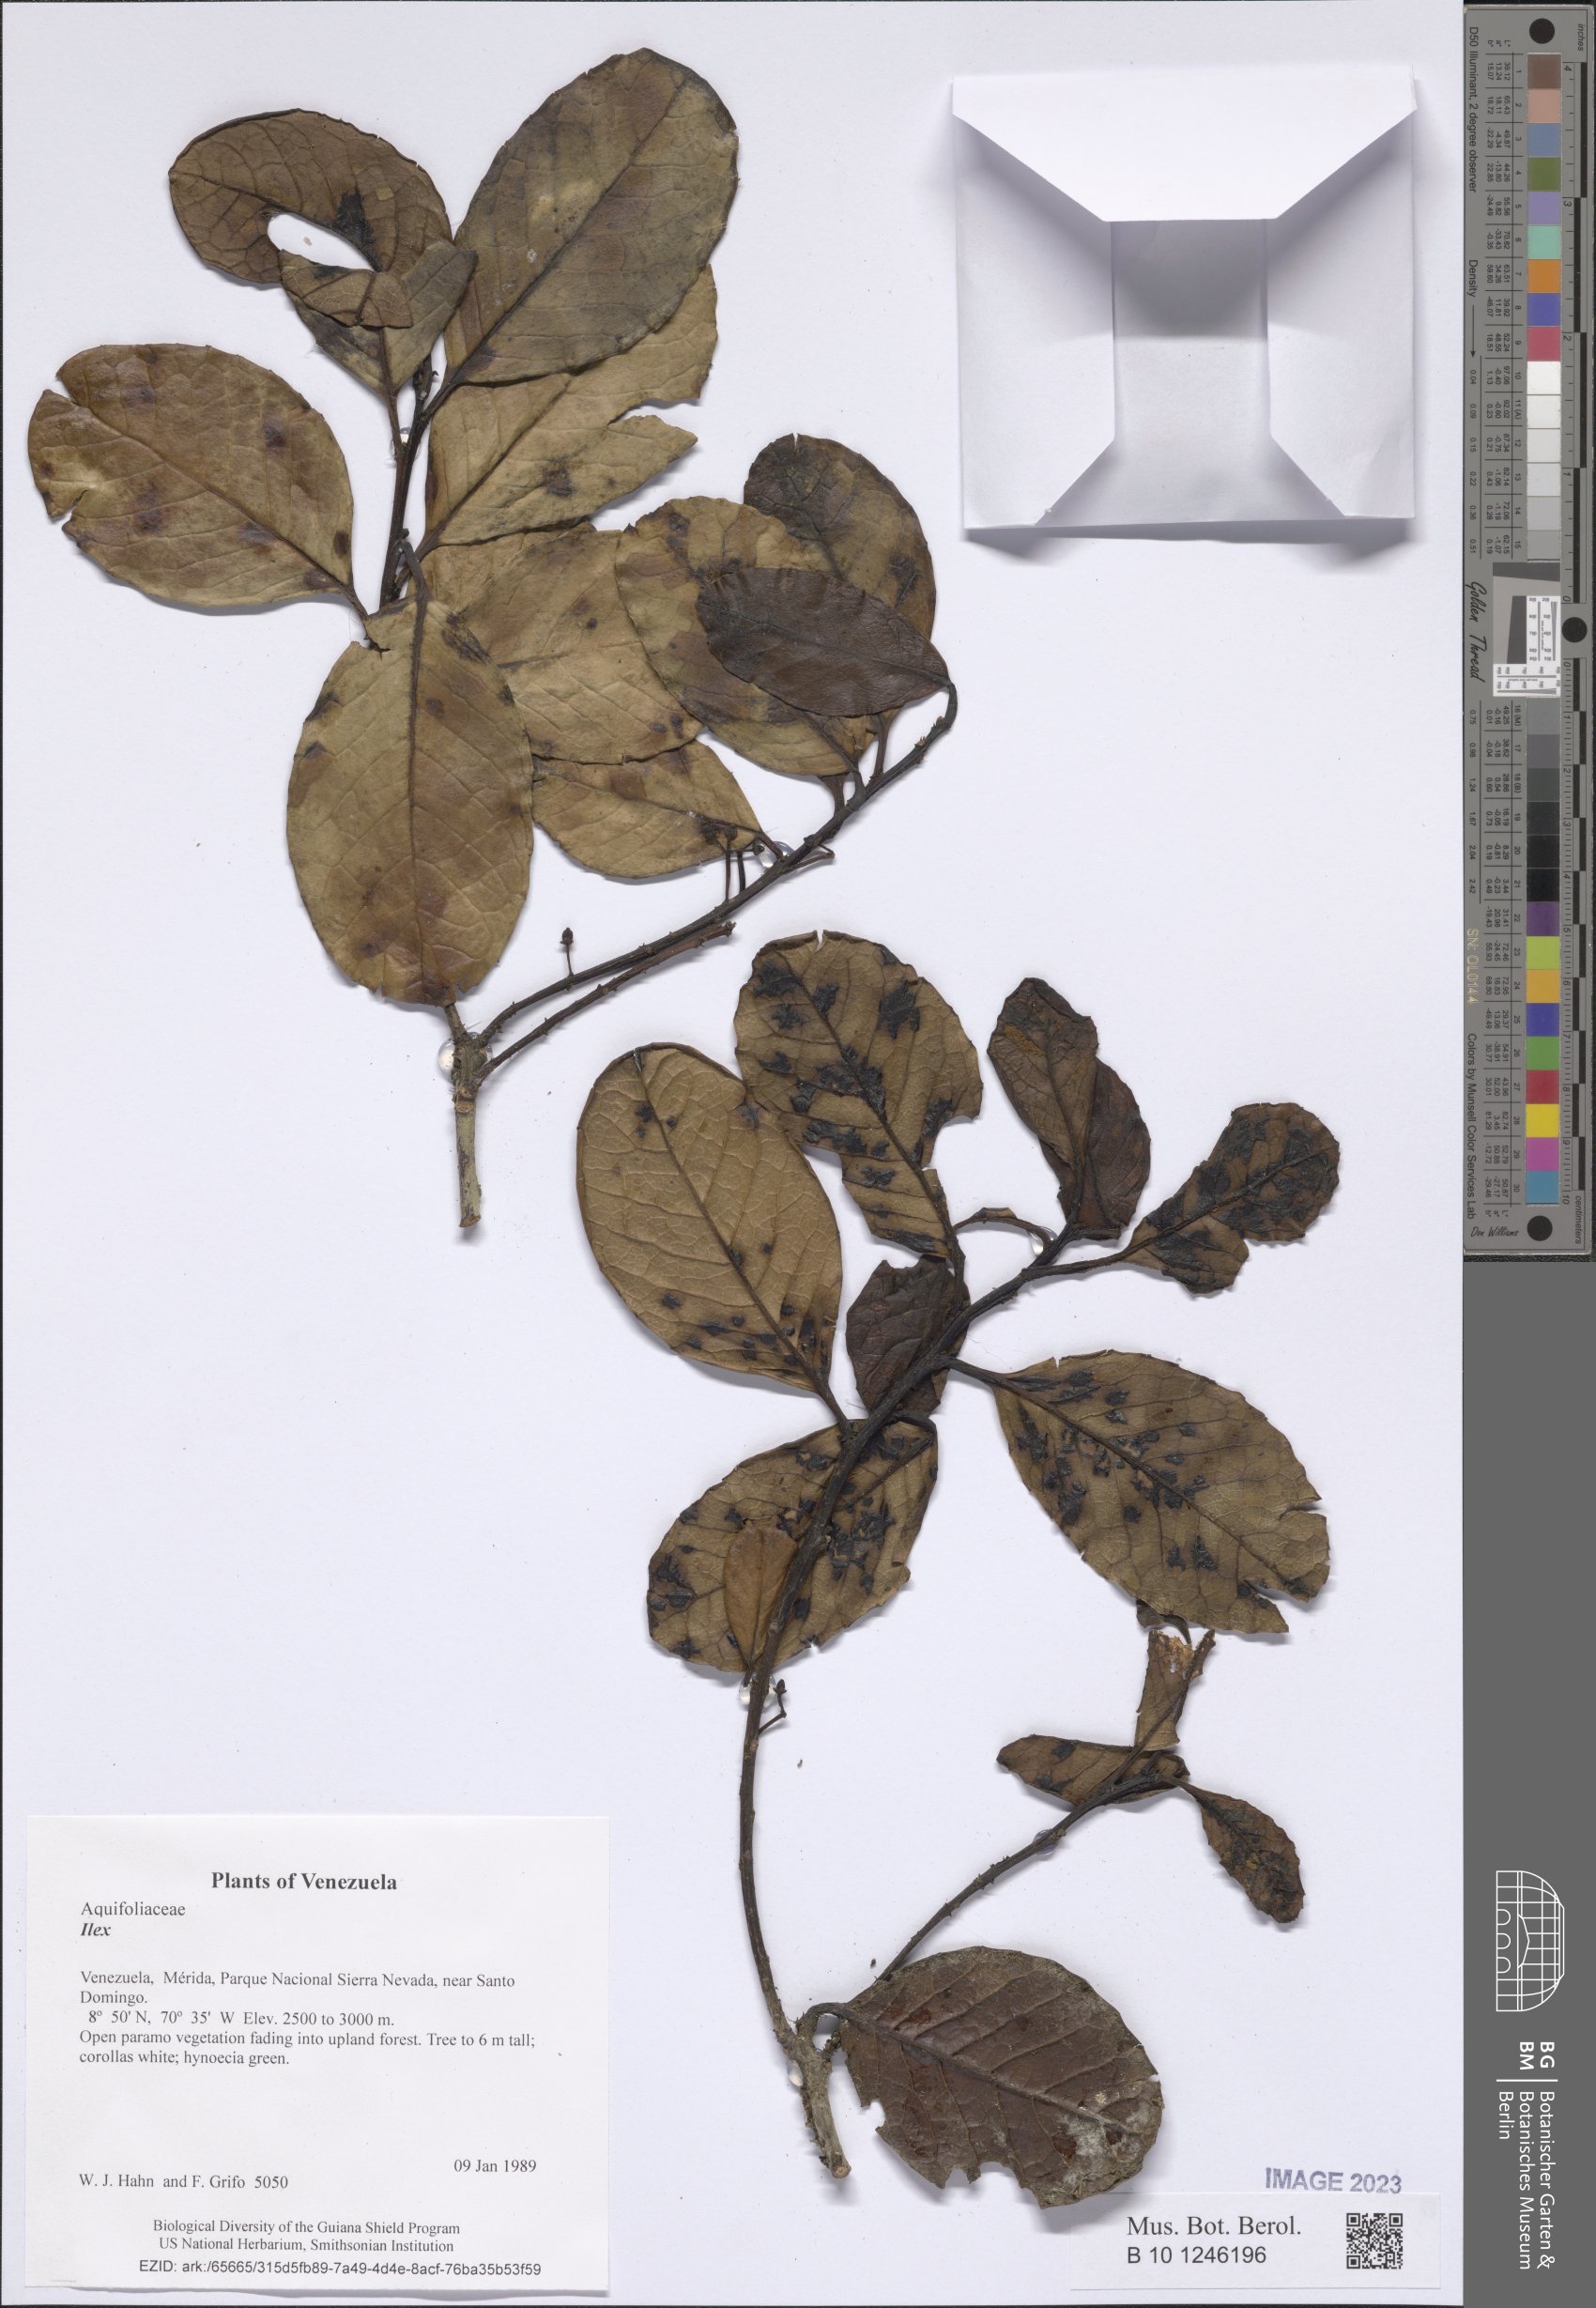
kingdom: Plantae
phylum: Tracheophyta
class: Magnoliopsida
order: Aquifoliales
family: Aquifoliaceae
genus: Ilex
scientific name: Ilex
